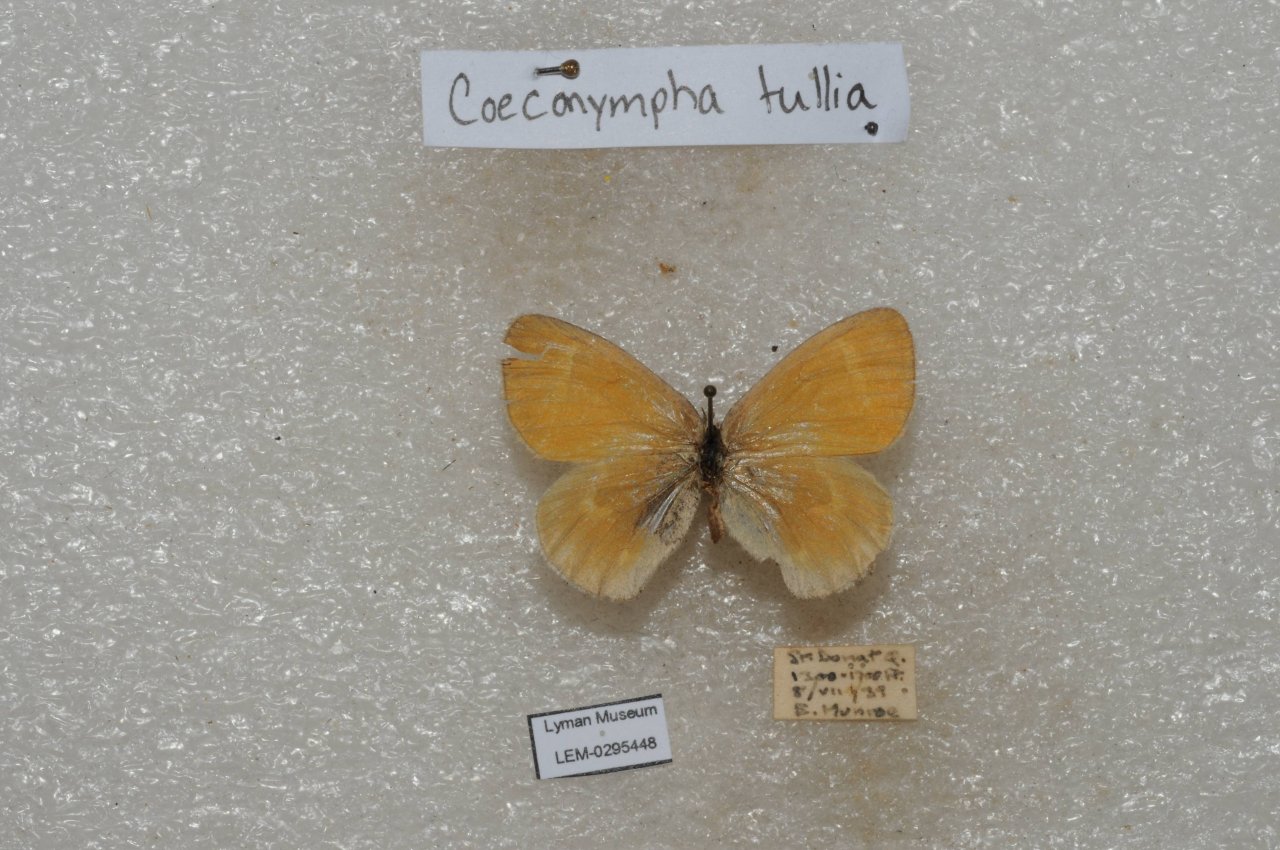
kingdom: Animalia
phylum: Arthropoda
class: Insecta
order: Lepidoptera
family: Nymphalidae
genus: Coenonympha
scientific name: Coenonympha tullia
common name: Large Heath
